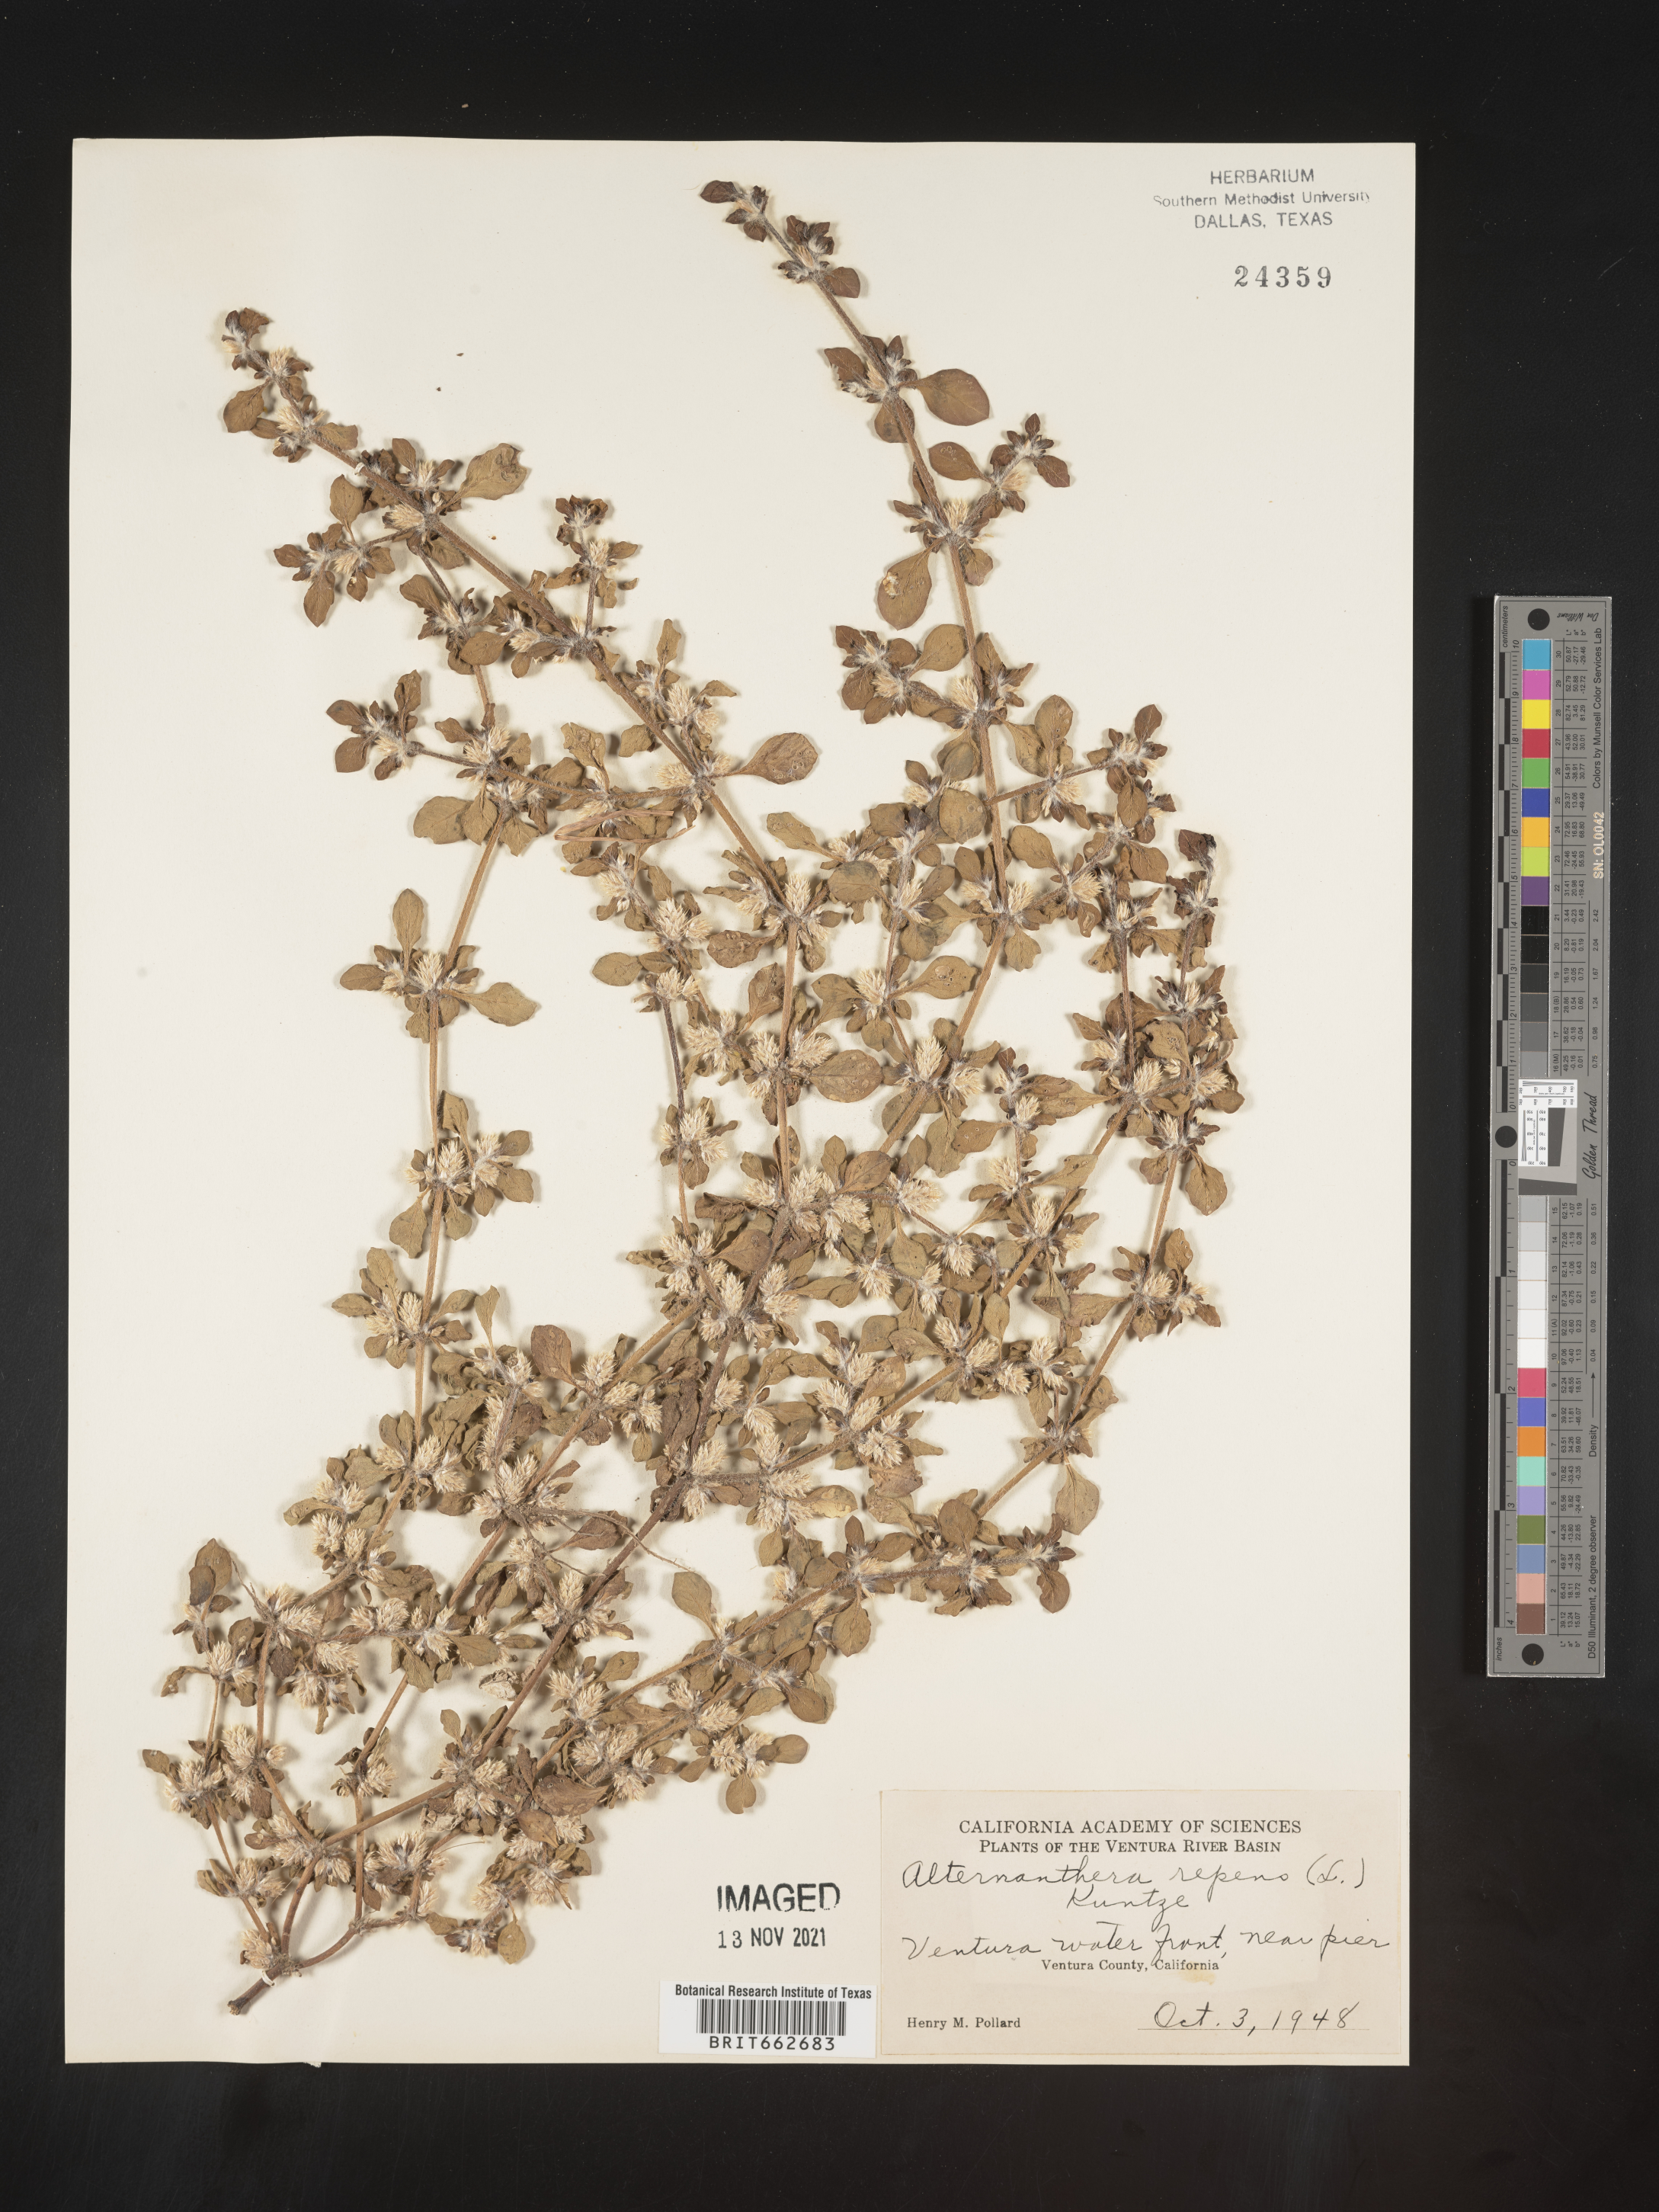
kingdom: Plantae
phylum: Tracheophyta
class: Magnoliopsida
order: Caryophyllales
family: Amaranthaceae
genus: Alternanthera
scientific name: Alternanthera pungens
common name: Khakiweed
